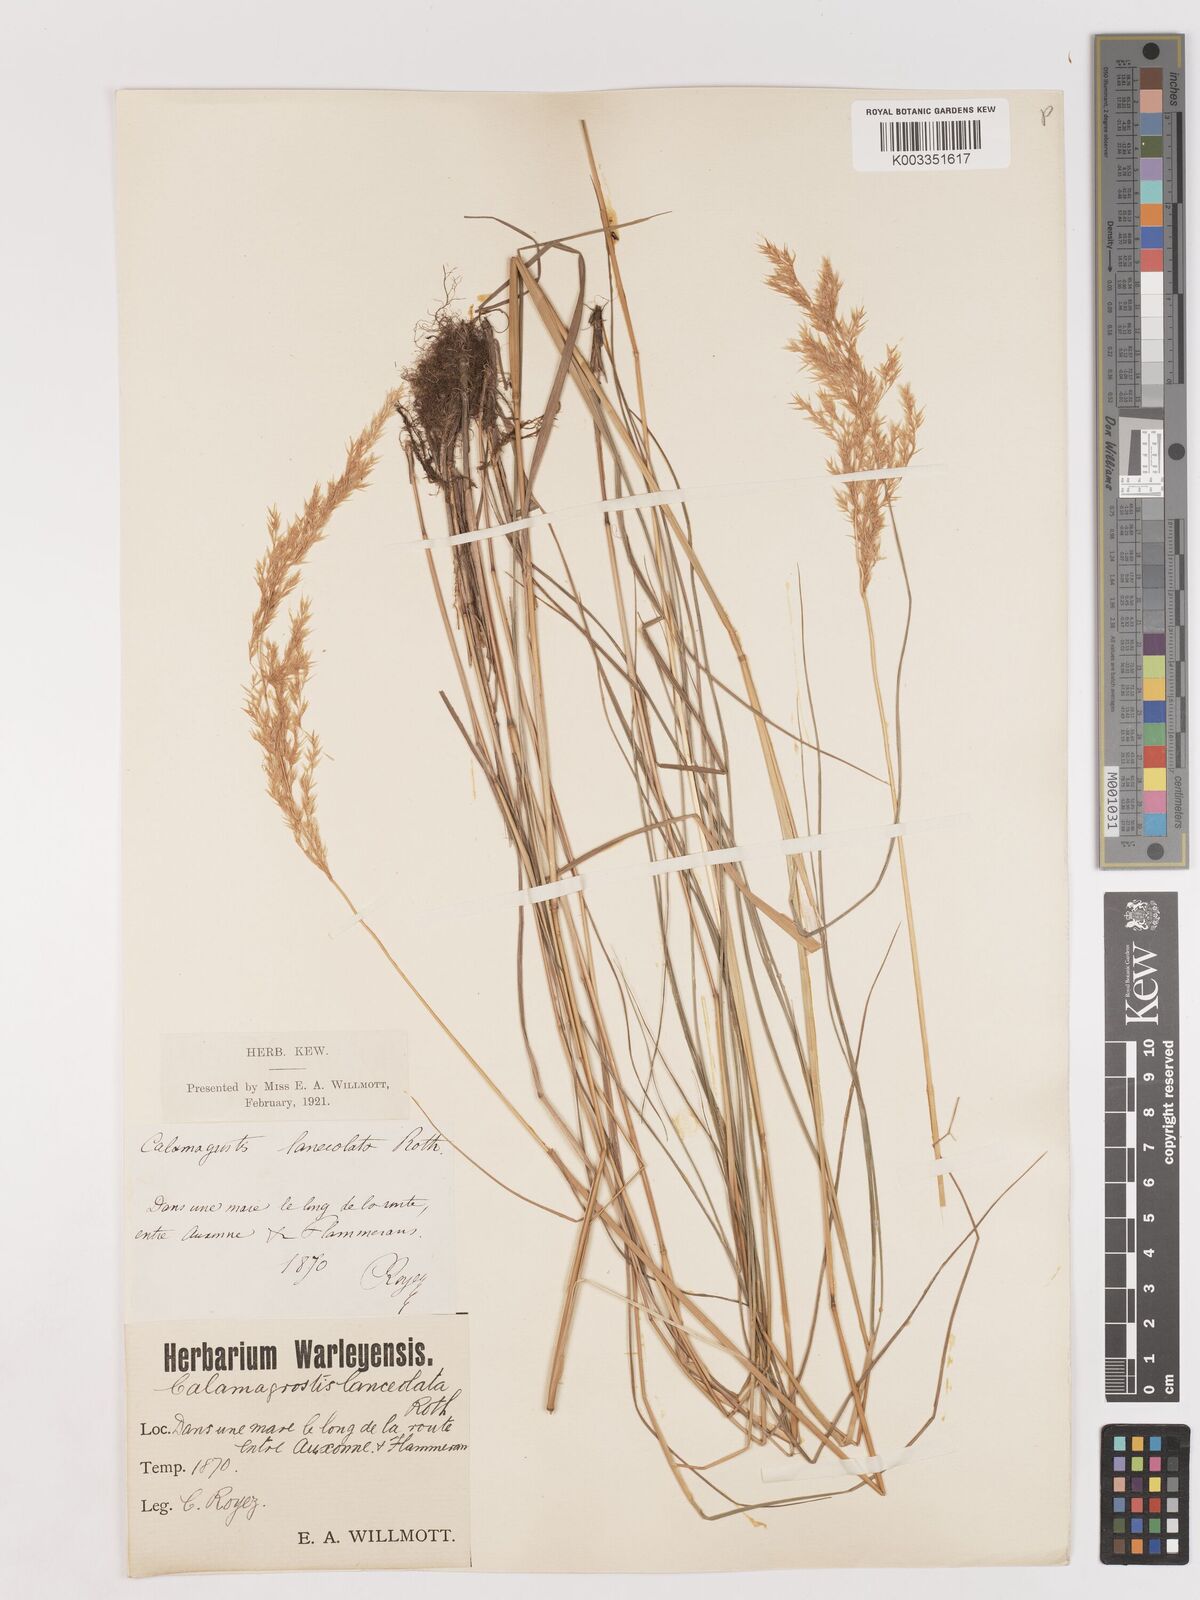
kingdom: Plantae
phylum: Tracheophyta
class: Liliopsida
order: Poales
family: Poaceae
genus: Calamagrostis
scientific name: Calamagrostis canescens
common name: Purple small-reed
